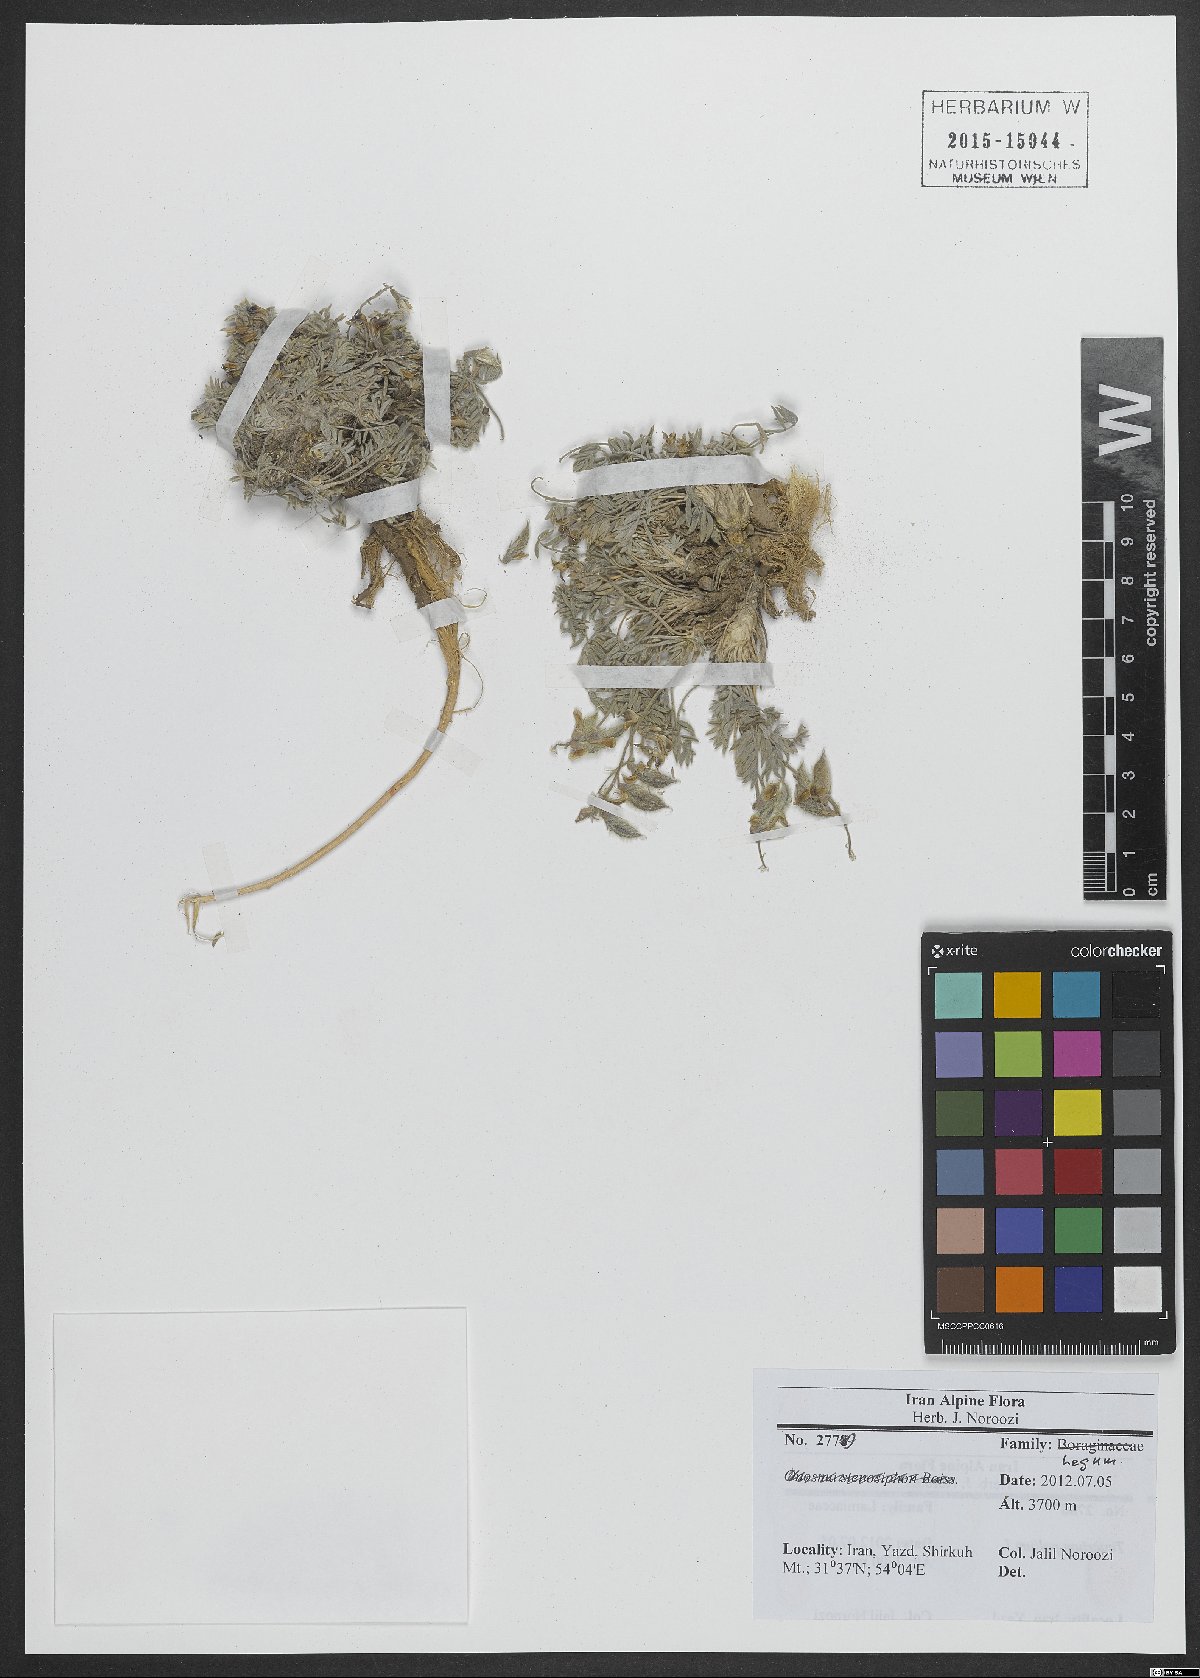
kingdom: Plantae
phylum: Tracheophyta
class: Magnoliopsida
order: Fabales
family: Fabaceae
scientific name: Fabaceae
